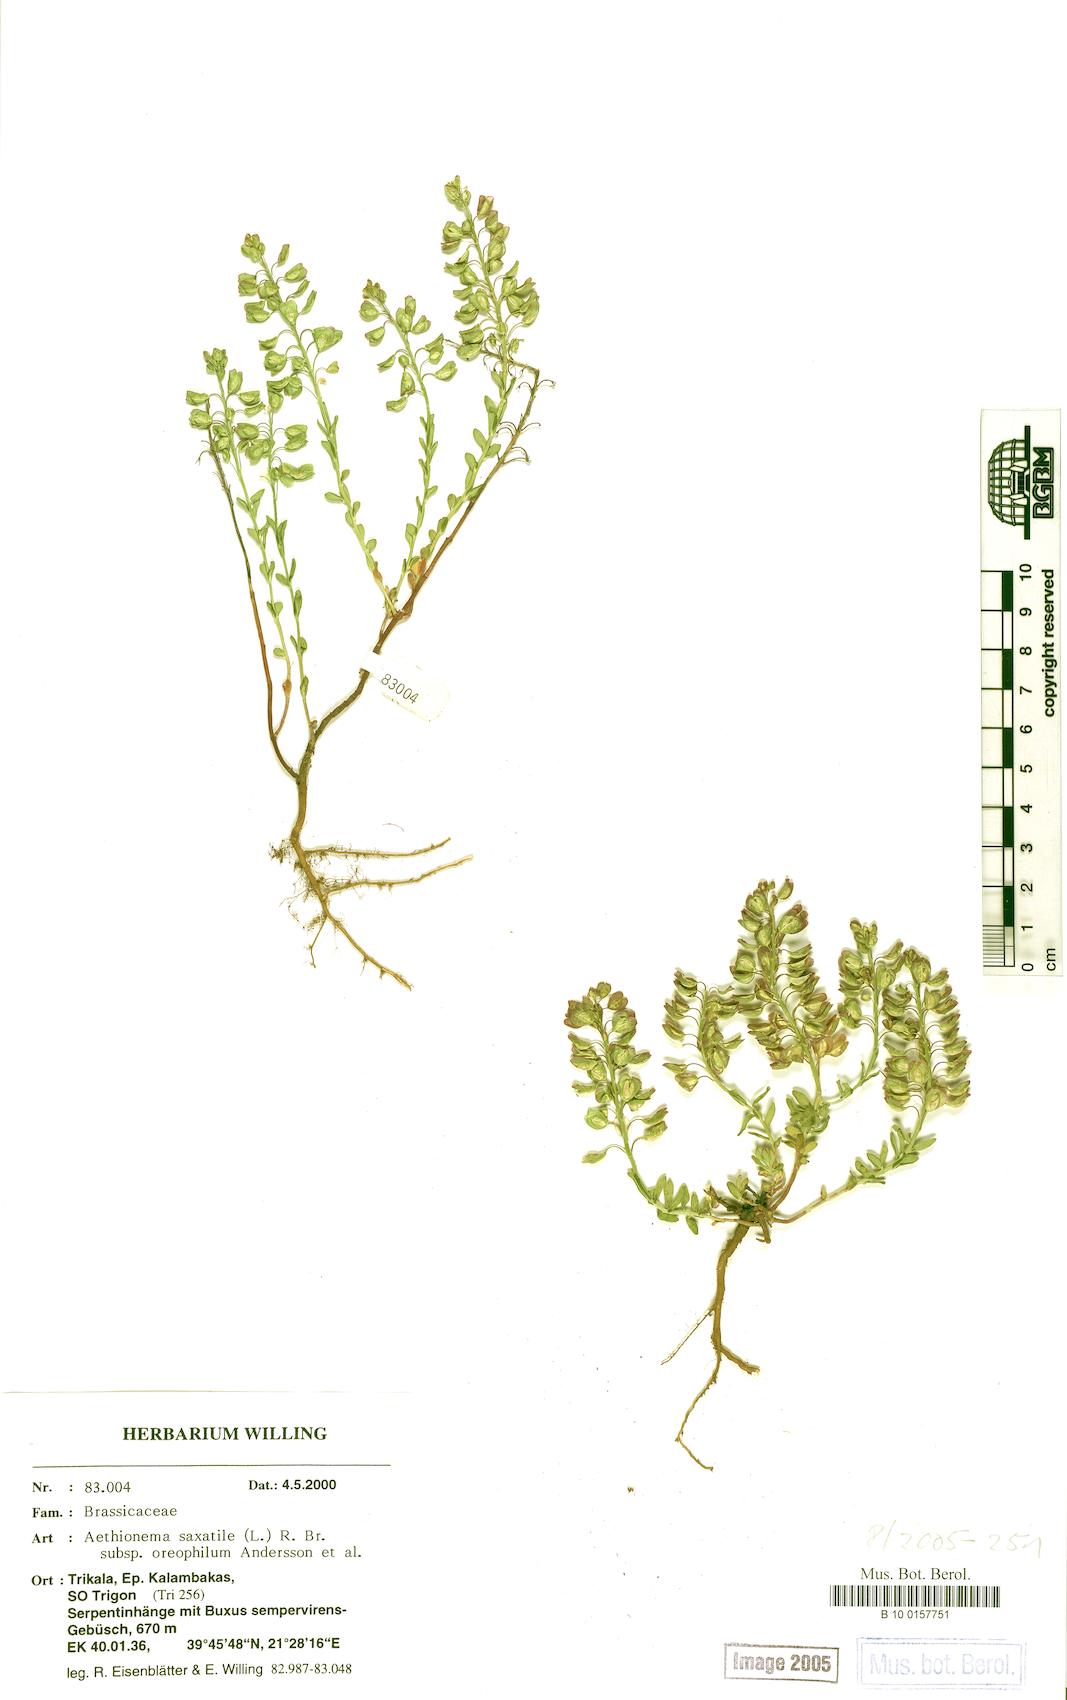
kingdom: Plantae
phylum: Tracheophyta
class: Magnoliopsida
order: Brassicales
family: Brassicaceae
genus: Aethionema
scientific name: Aethionema saxatile
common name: Burnt candytuft
